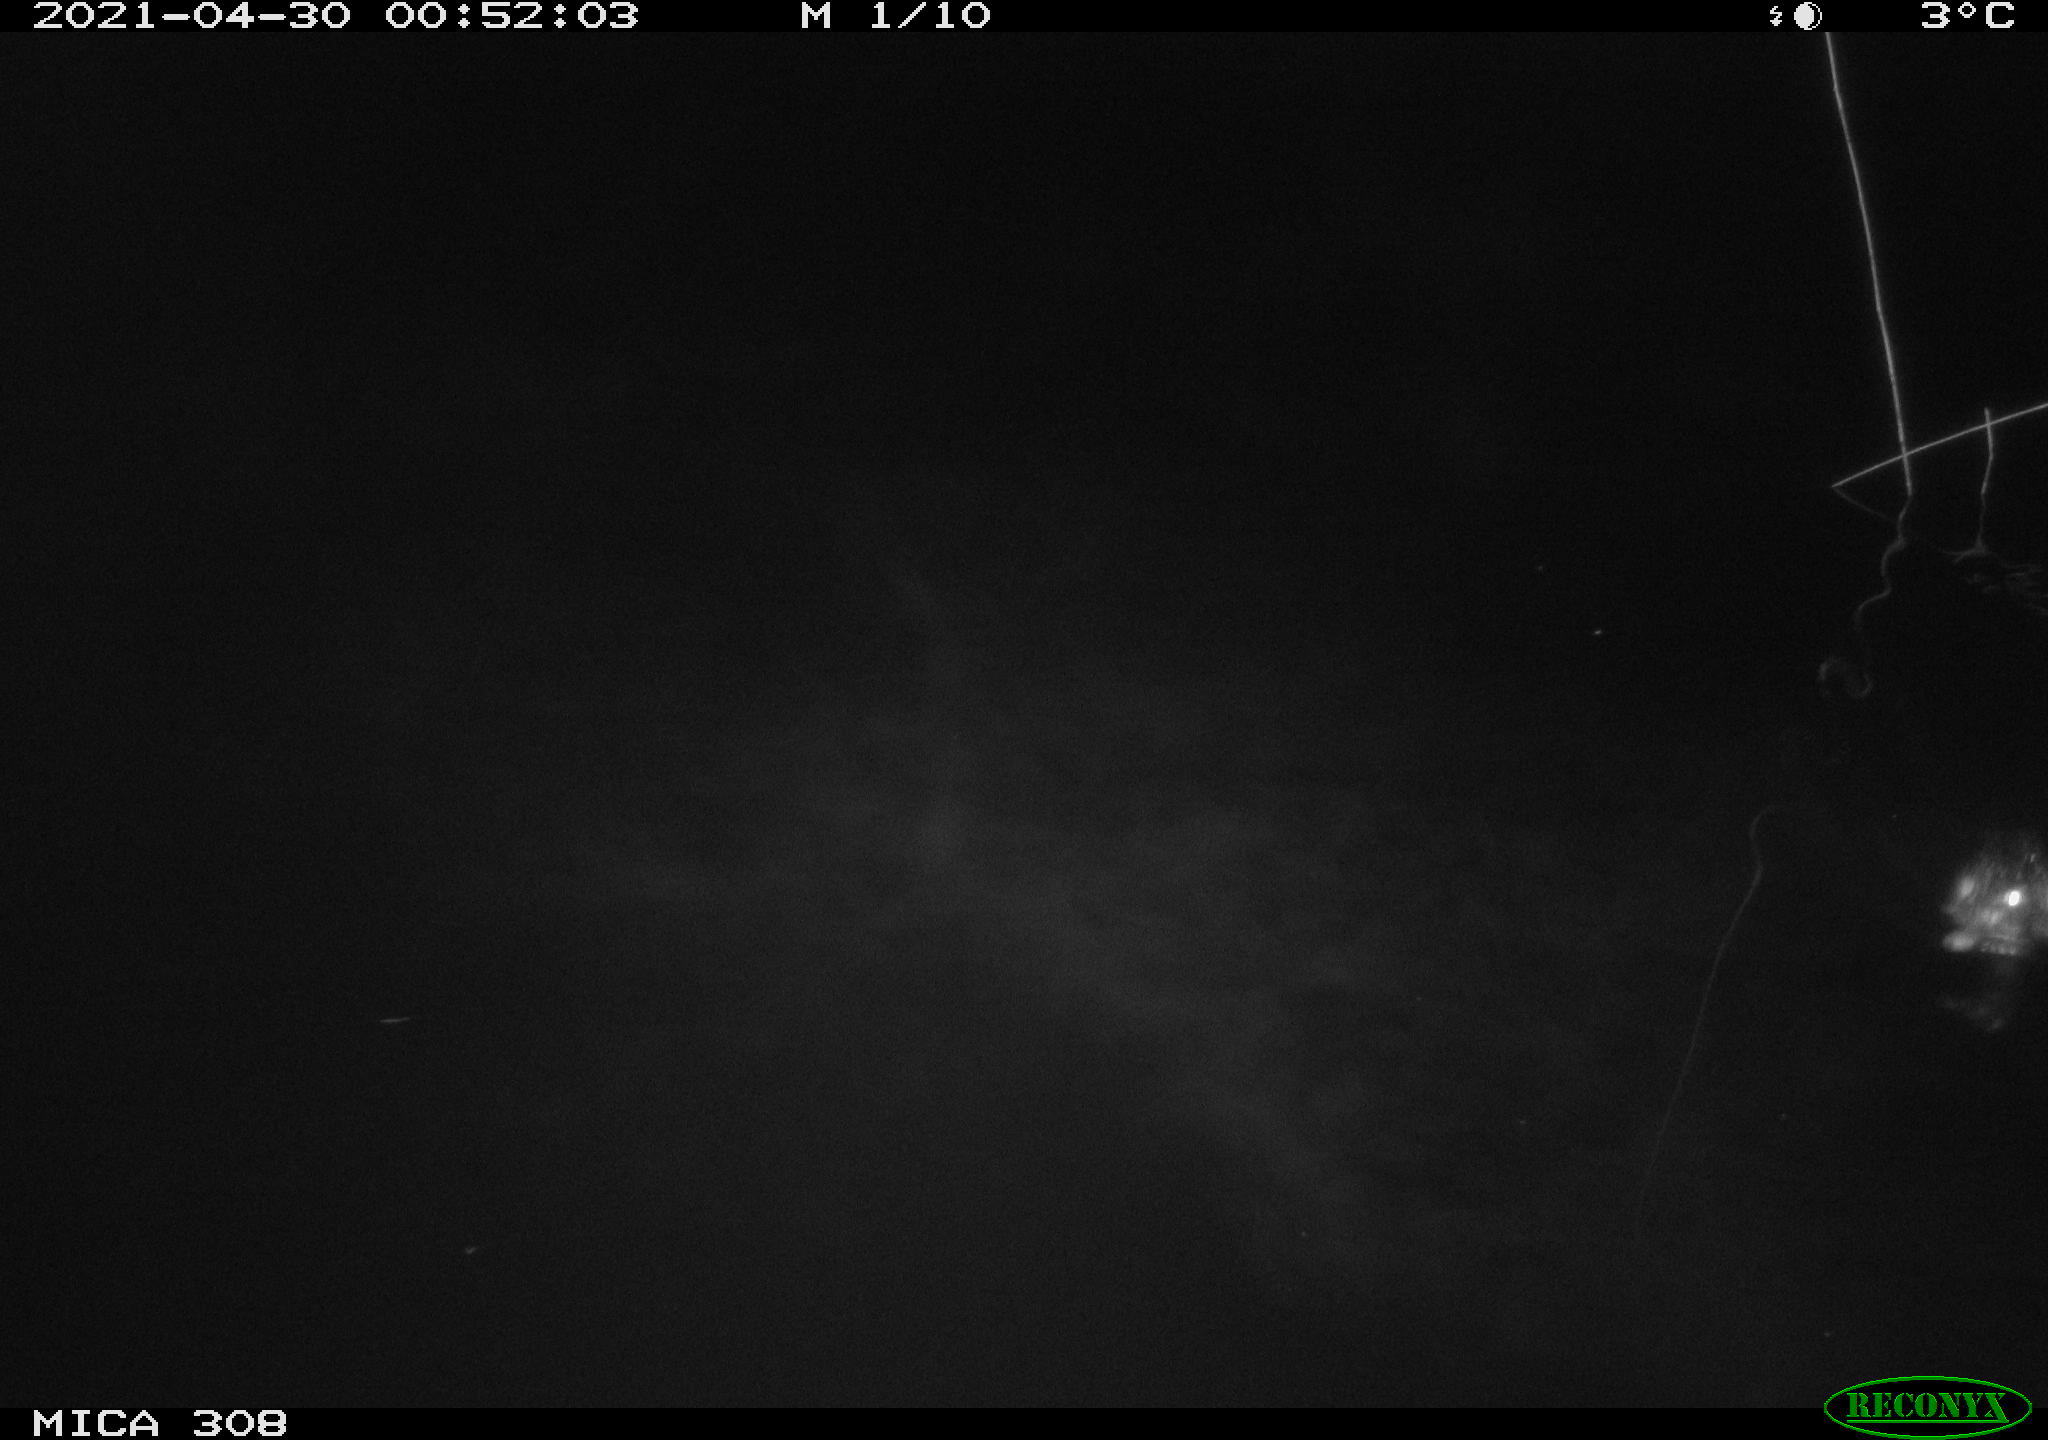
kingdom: Animalia
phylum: Chordata
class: Aves
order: Anseriformes
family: Anatidae
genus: Anas
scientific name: Anas platyrhynchos
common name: Mallard
